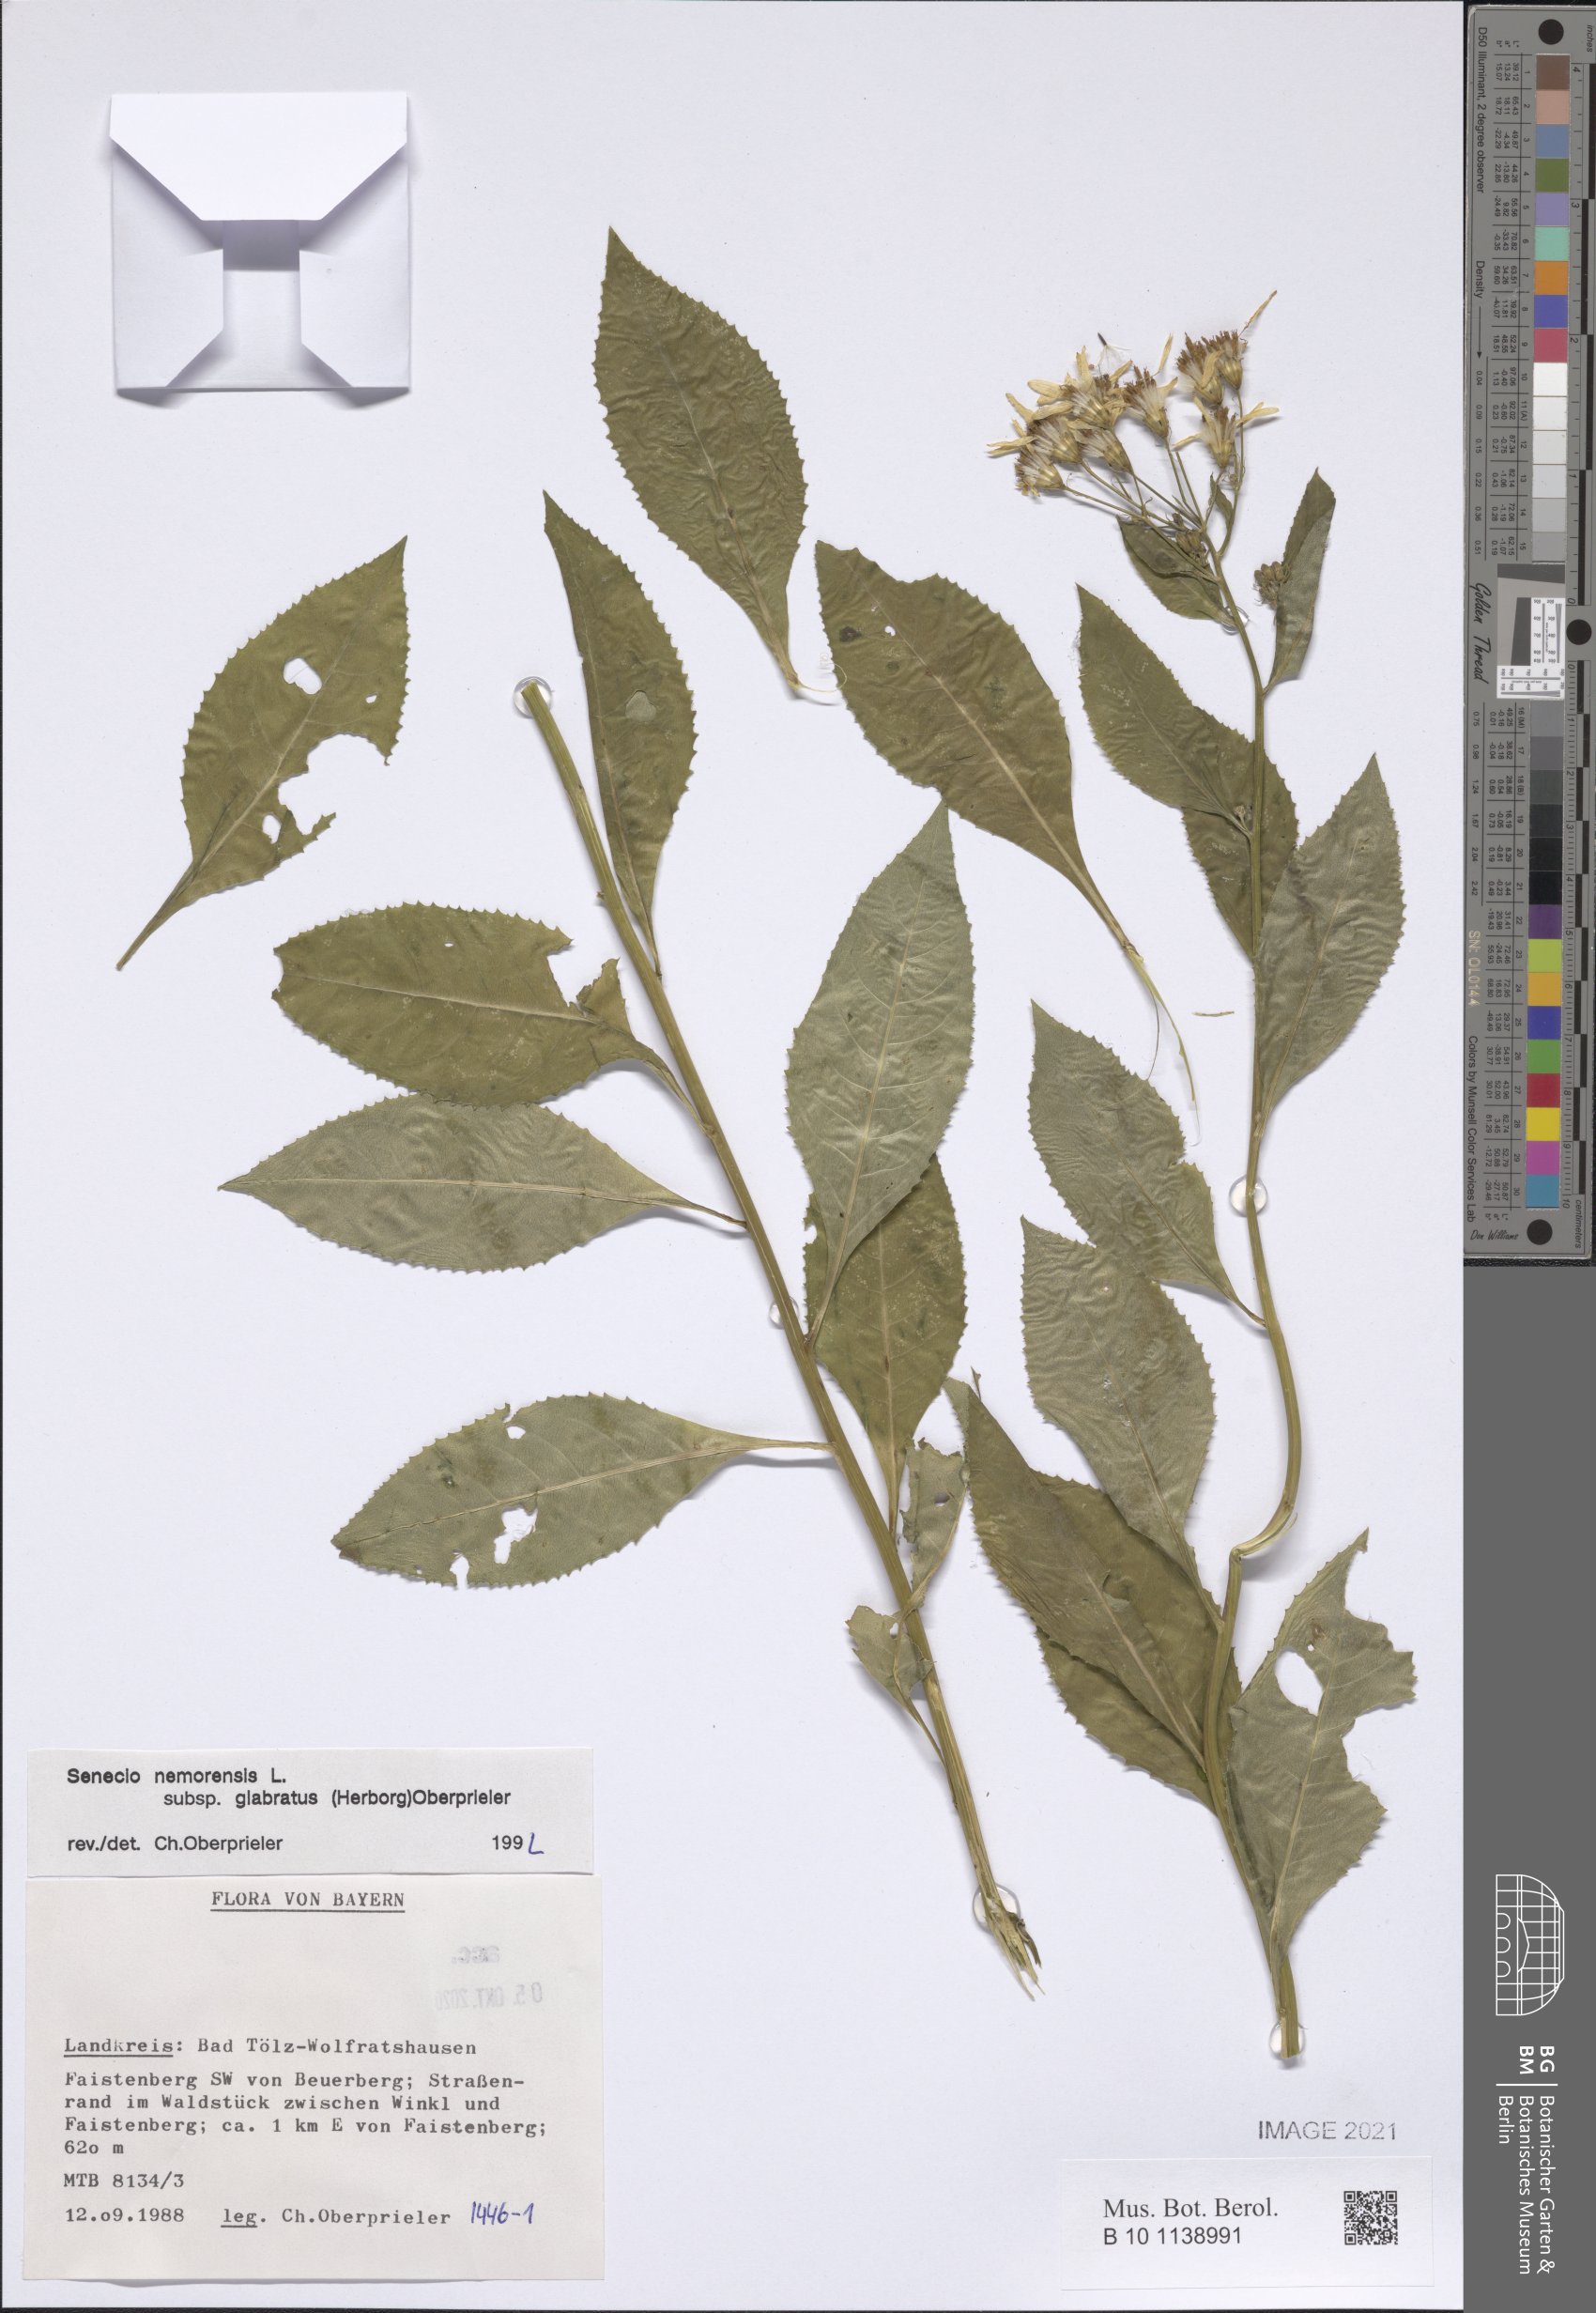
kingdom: Plantae
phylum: Tracheophyta
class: Magnoliopsida
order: Asterales
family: Asteraceae
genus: Senecio
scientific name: Senecio germanicus
